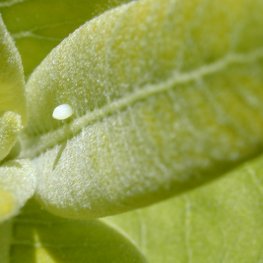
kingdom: Animalia
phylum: Arthropoda
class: Insecta
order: Lepidoptera
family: Nymphalidae
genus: Danaus
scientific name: Danaus plexippus
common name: Monarch
